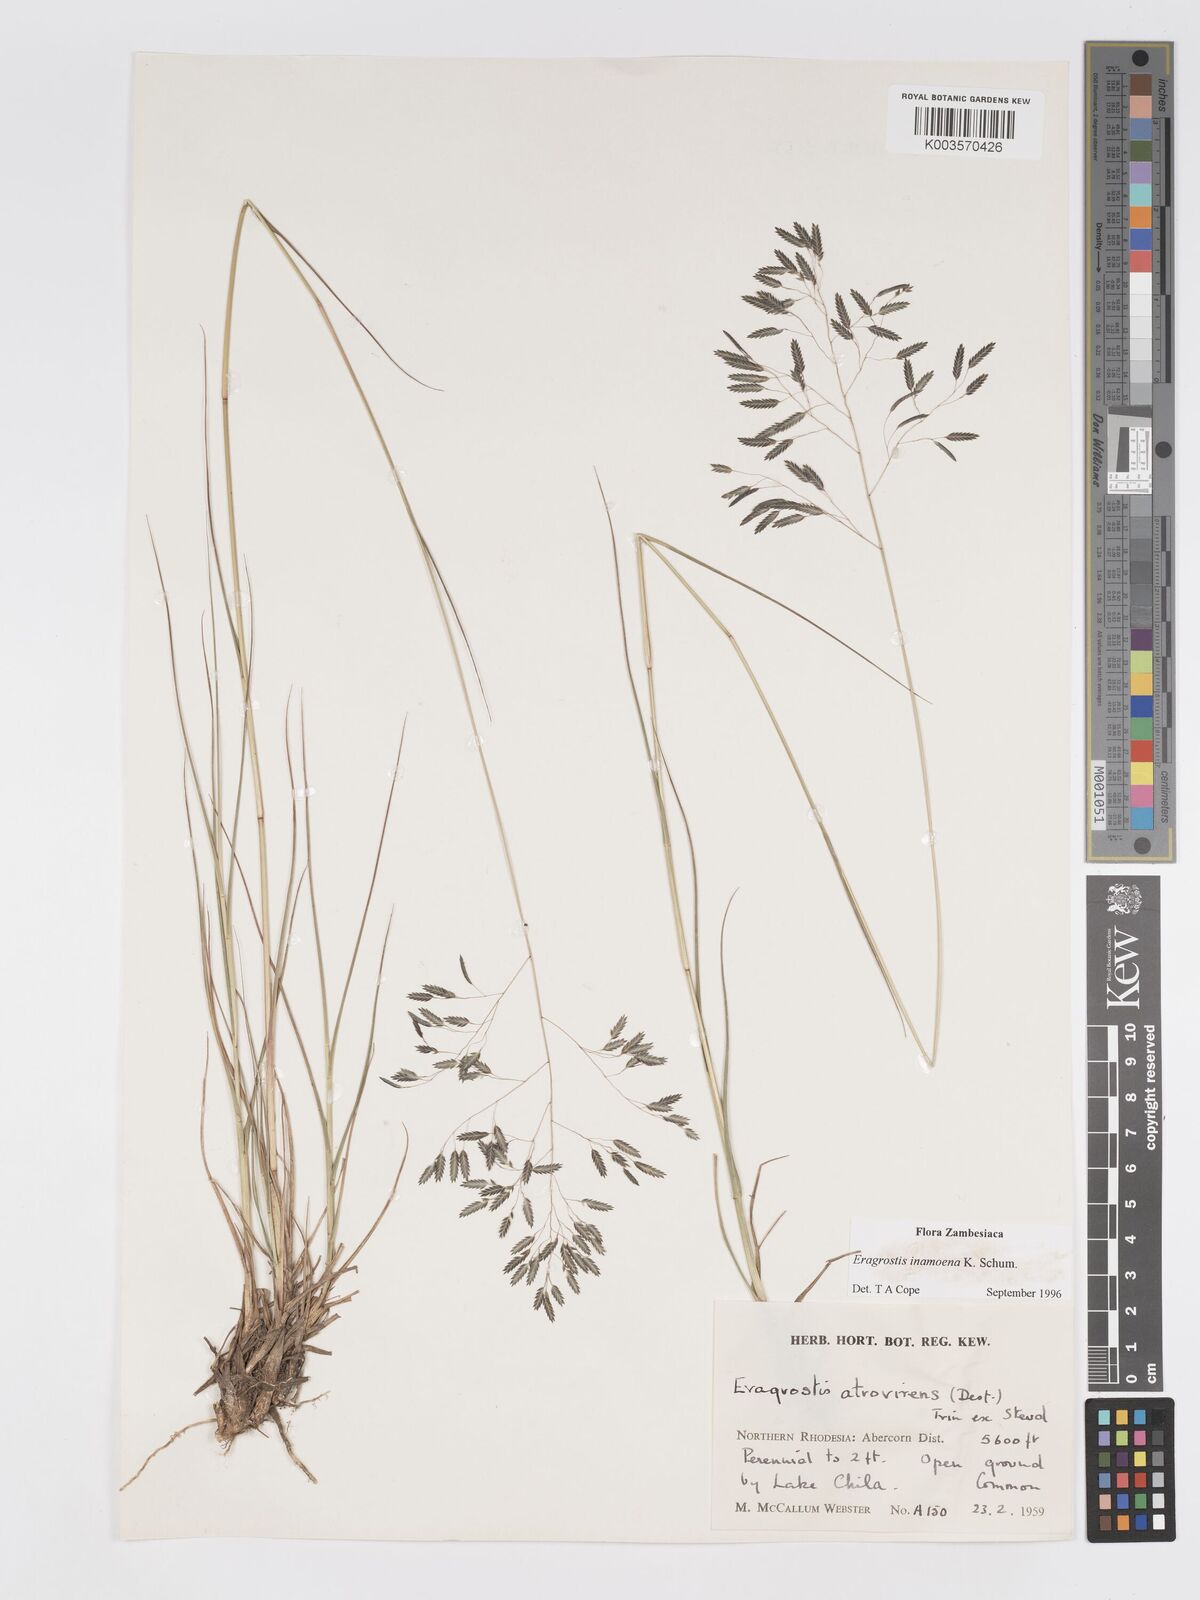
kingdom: Plantae
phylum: Tracheophyta
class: Liliopsida
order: Poales
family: Poaceae
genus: Eragrostis
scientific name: Eragrostis inamoena
